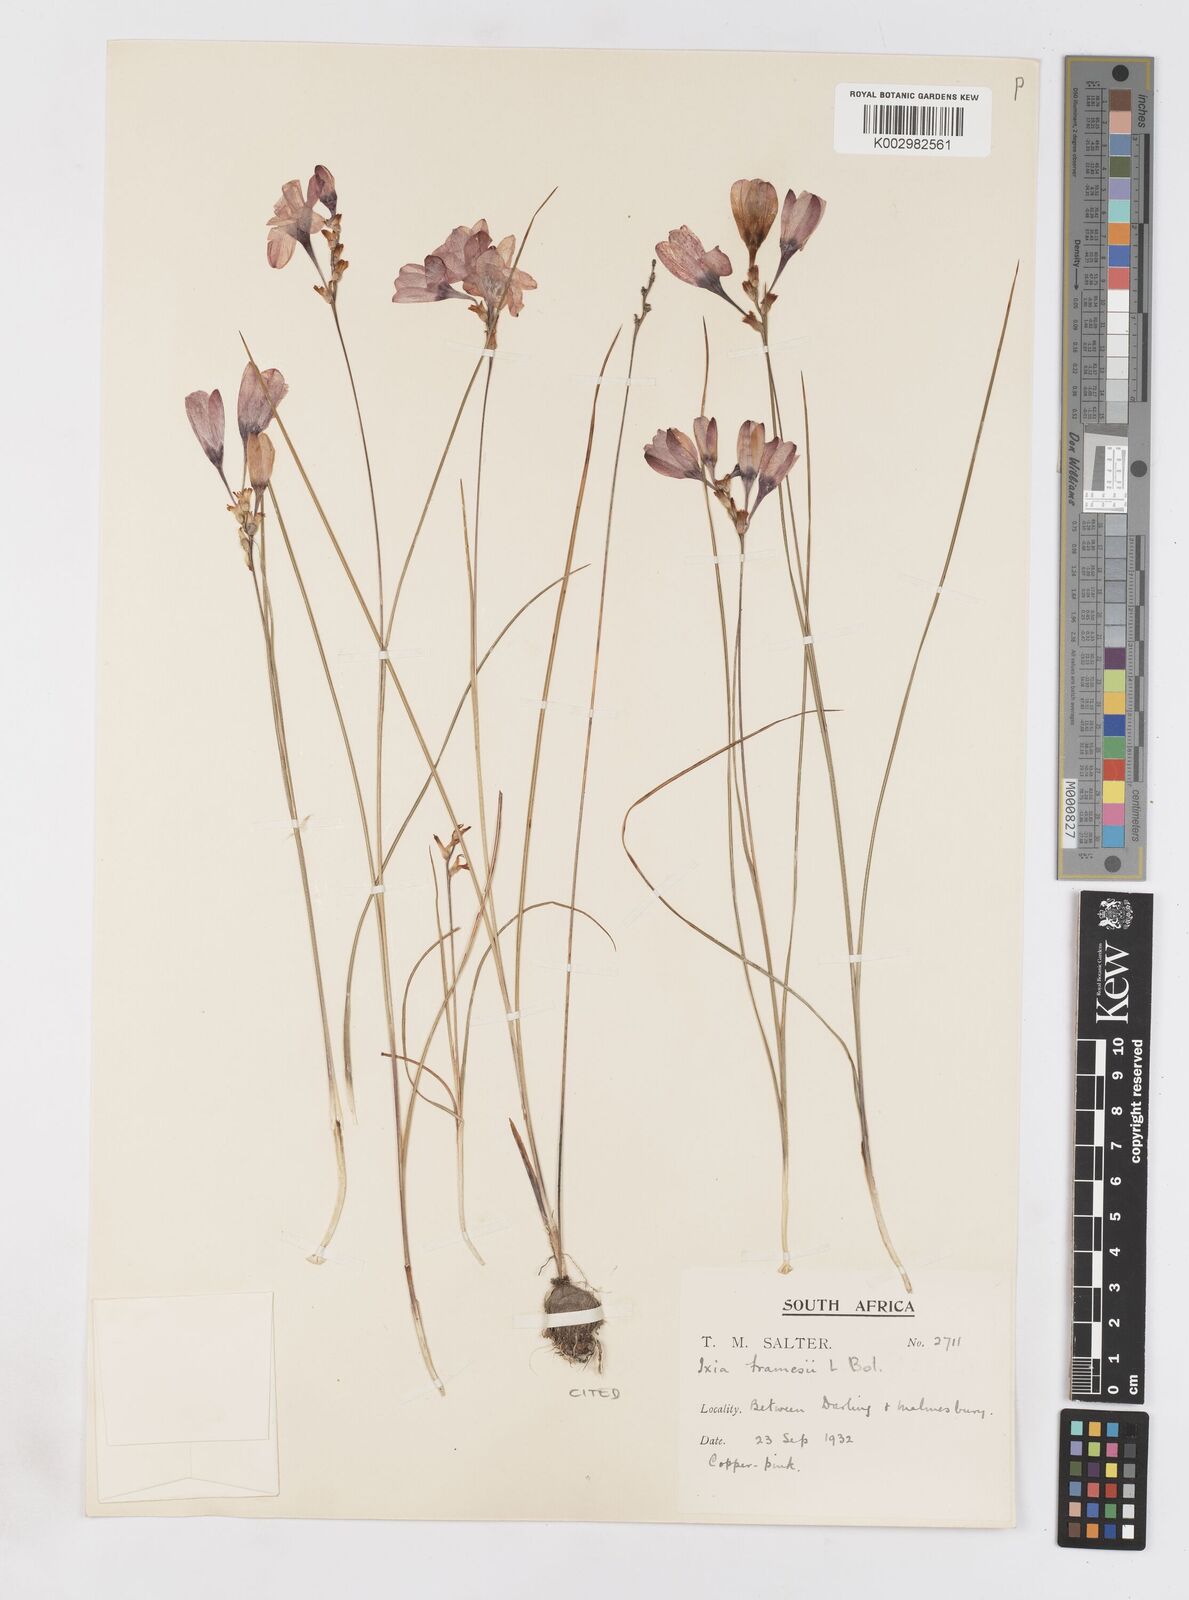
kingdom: Plantae
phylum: Tracheophyta
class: Liliopsida
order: Asparagales
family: Iridaceae
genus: Ixia
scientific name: Ixia tenuifolia
